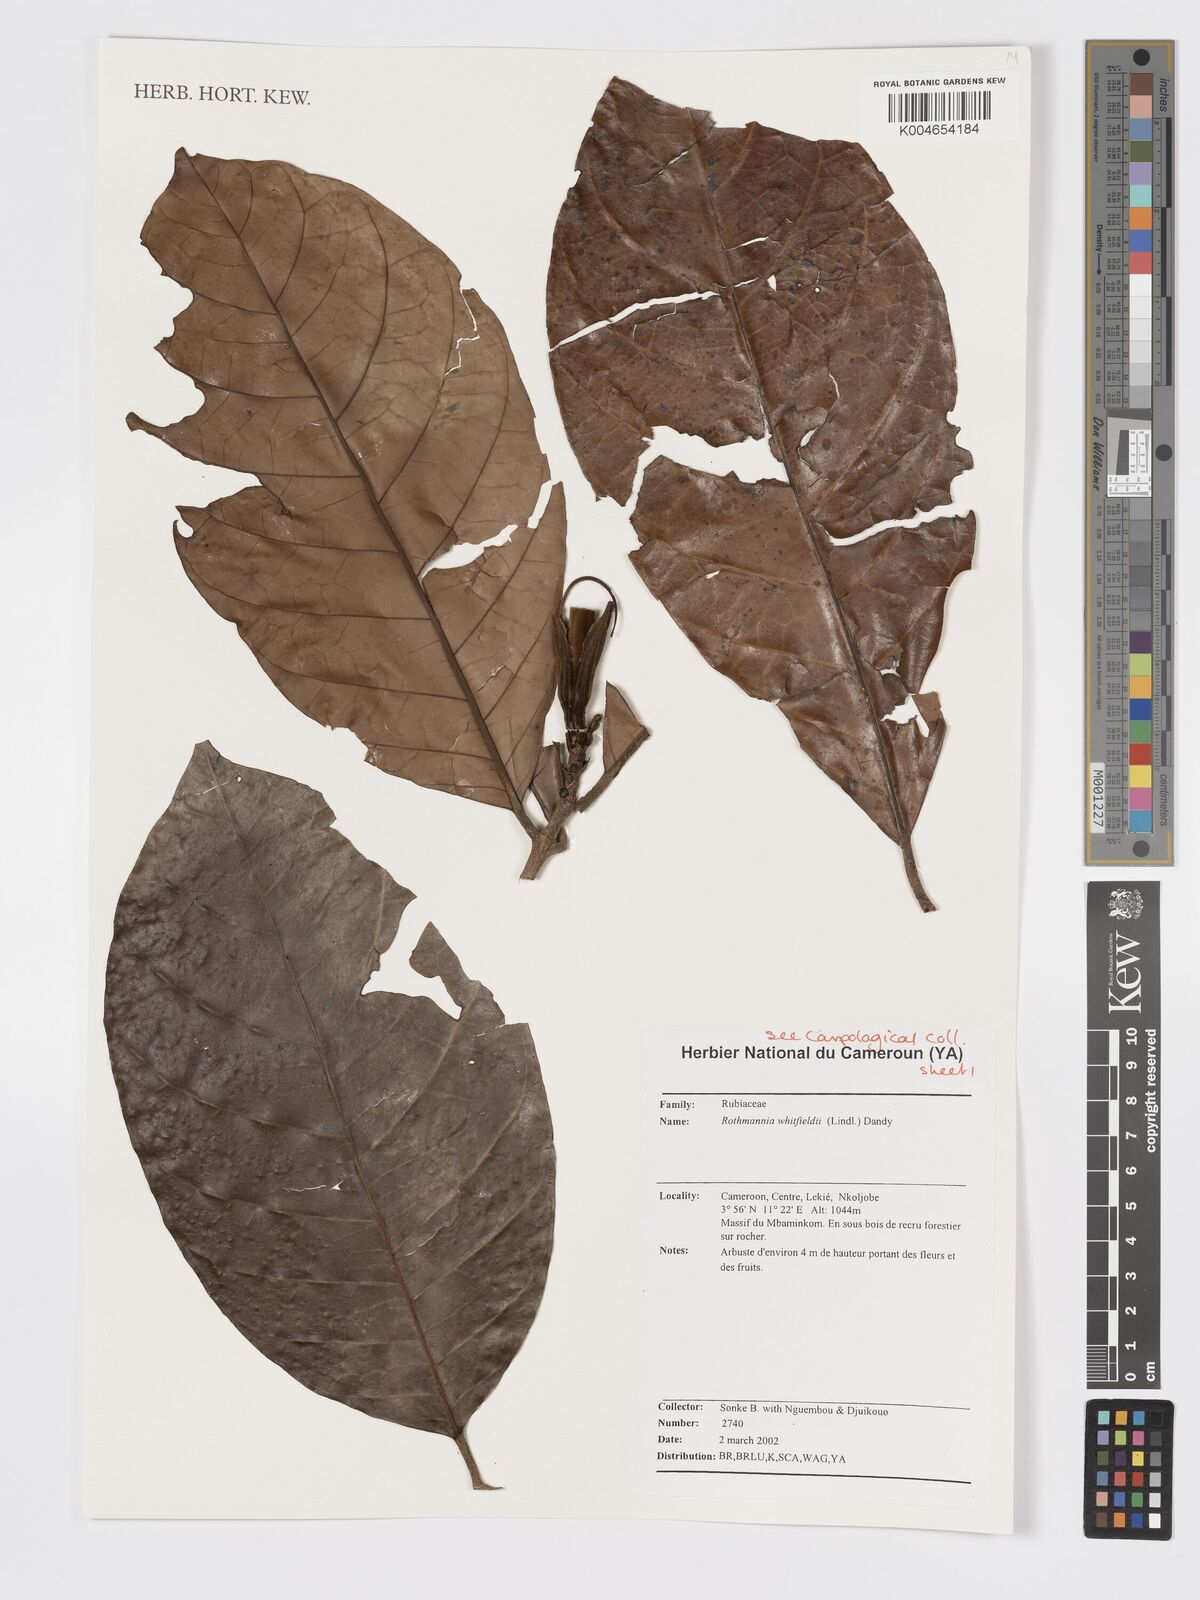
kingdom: Plantae
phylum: Tracheophyta
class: Magnoliopsida
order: Gentianales
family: Rubiaceae
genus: Rothmannia
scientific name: Rothmannia whitfieldii
